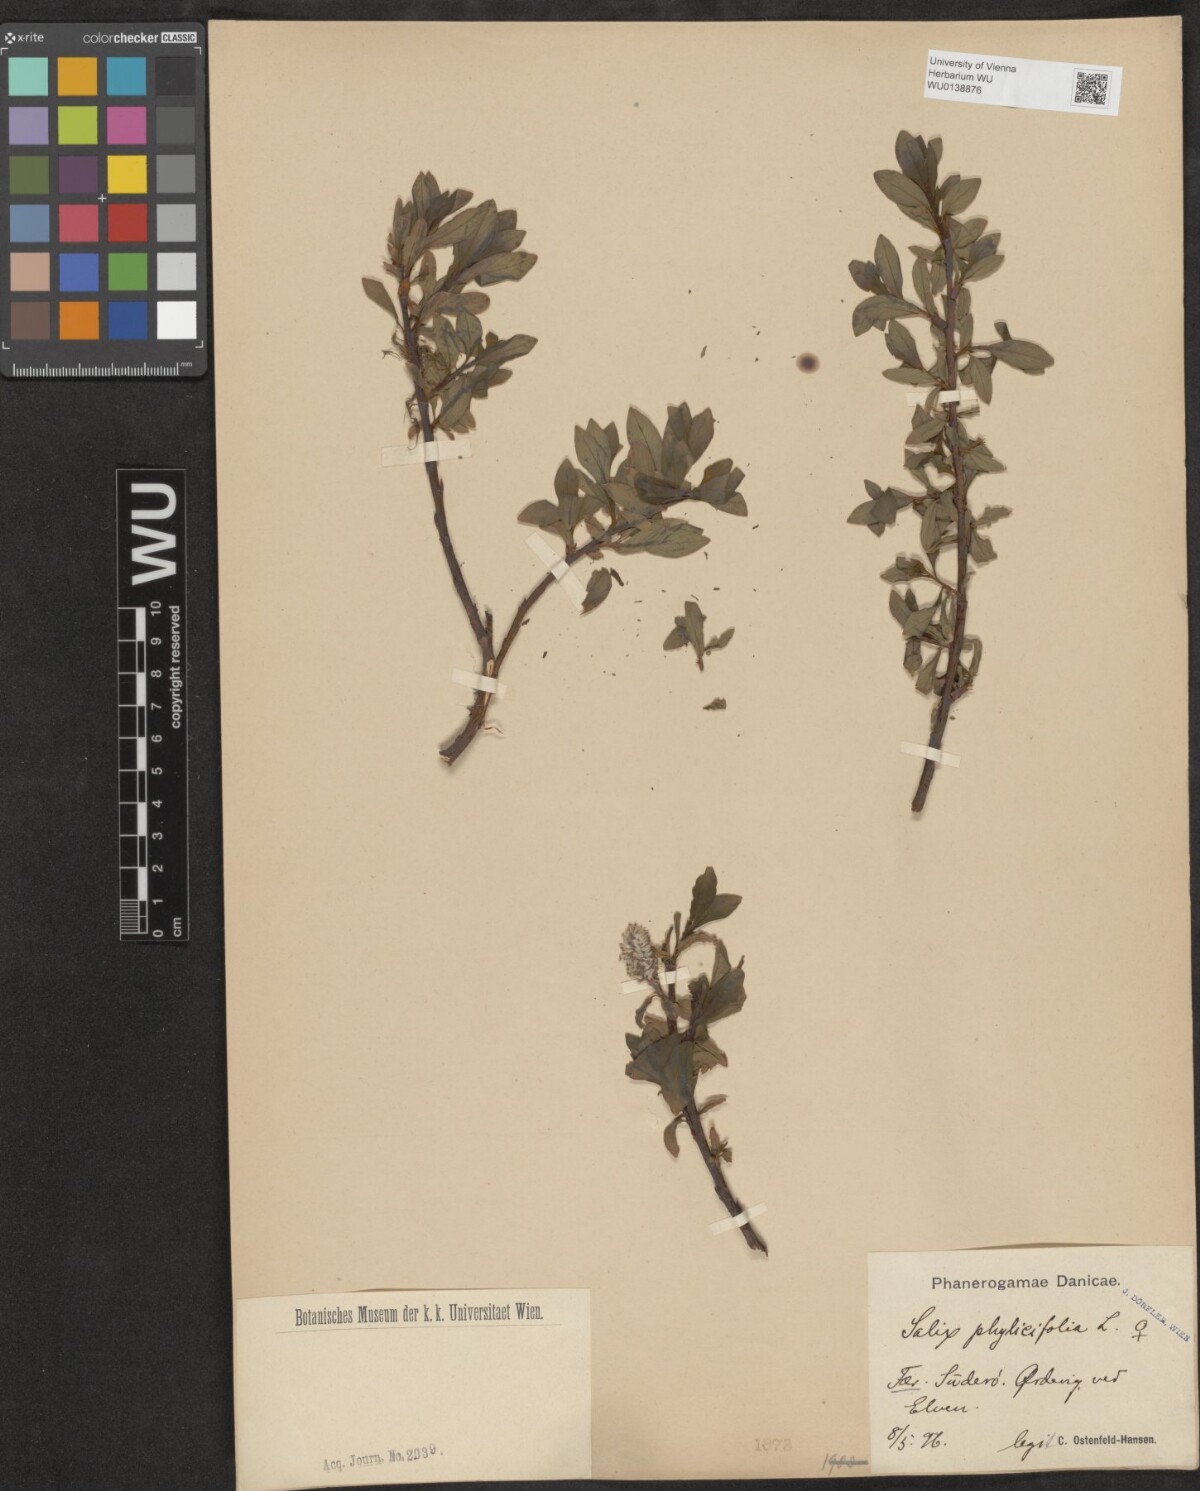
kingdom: Plantae
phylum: Tracheophyta
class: Magnoliopsida
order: Malpighiales
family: Salicaceae
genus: Salix
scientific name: Salix phylicifolia
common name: Tea-leaved willow
